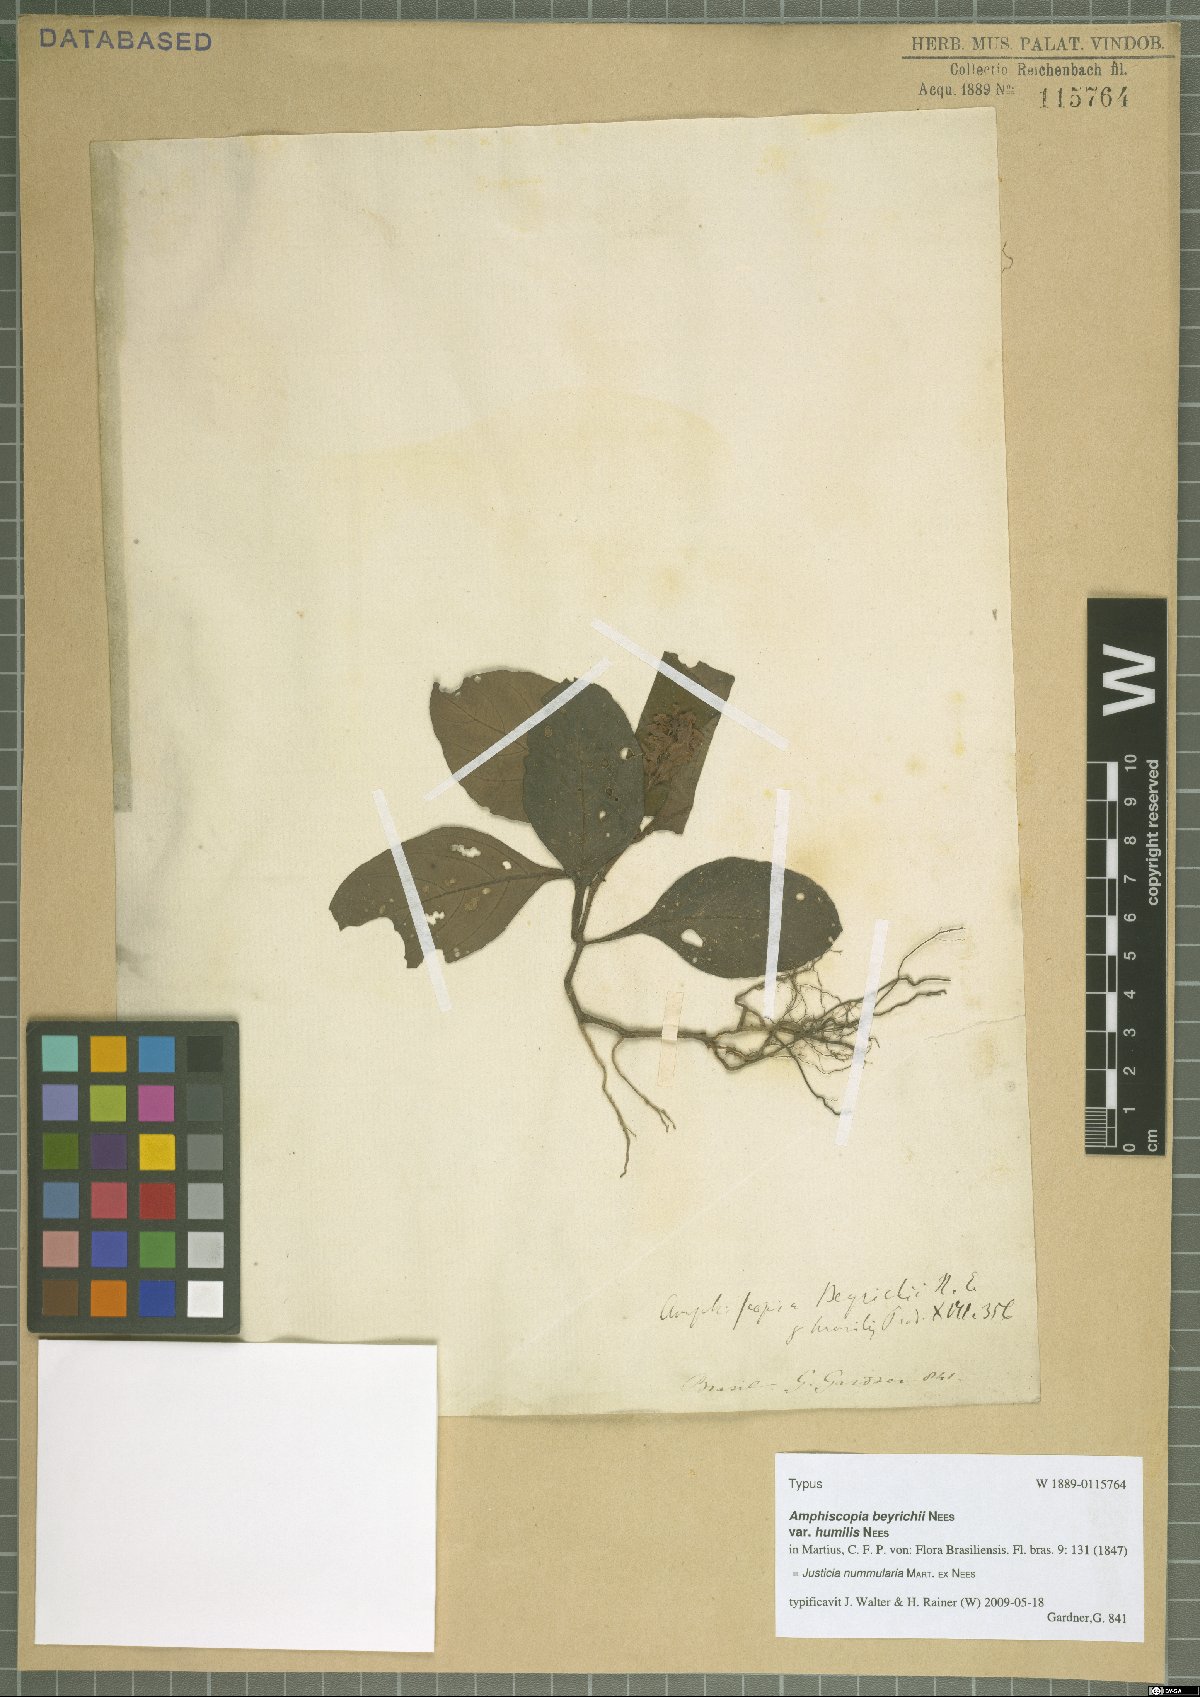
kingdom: Plantae
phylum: Tracheophyta
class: Magnoliopsida
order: Lamiales
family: Acanthaceae
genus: Dianthera
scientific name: Dianthera brasiliensis
